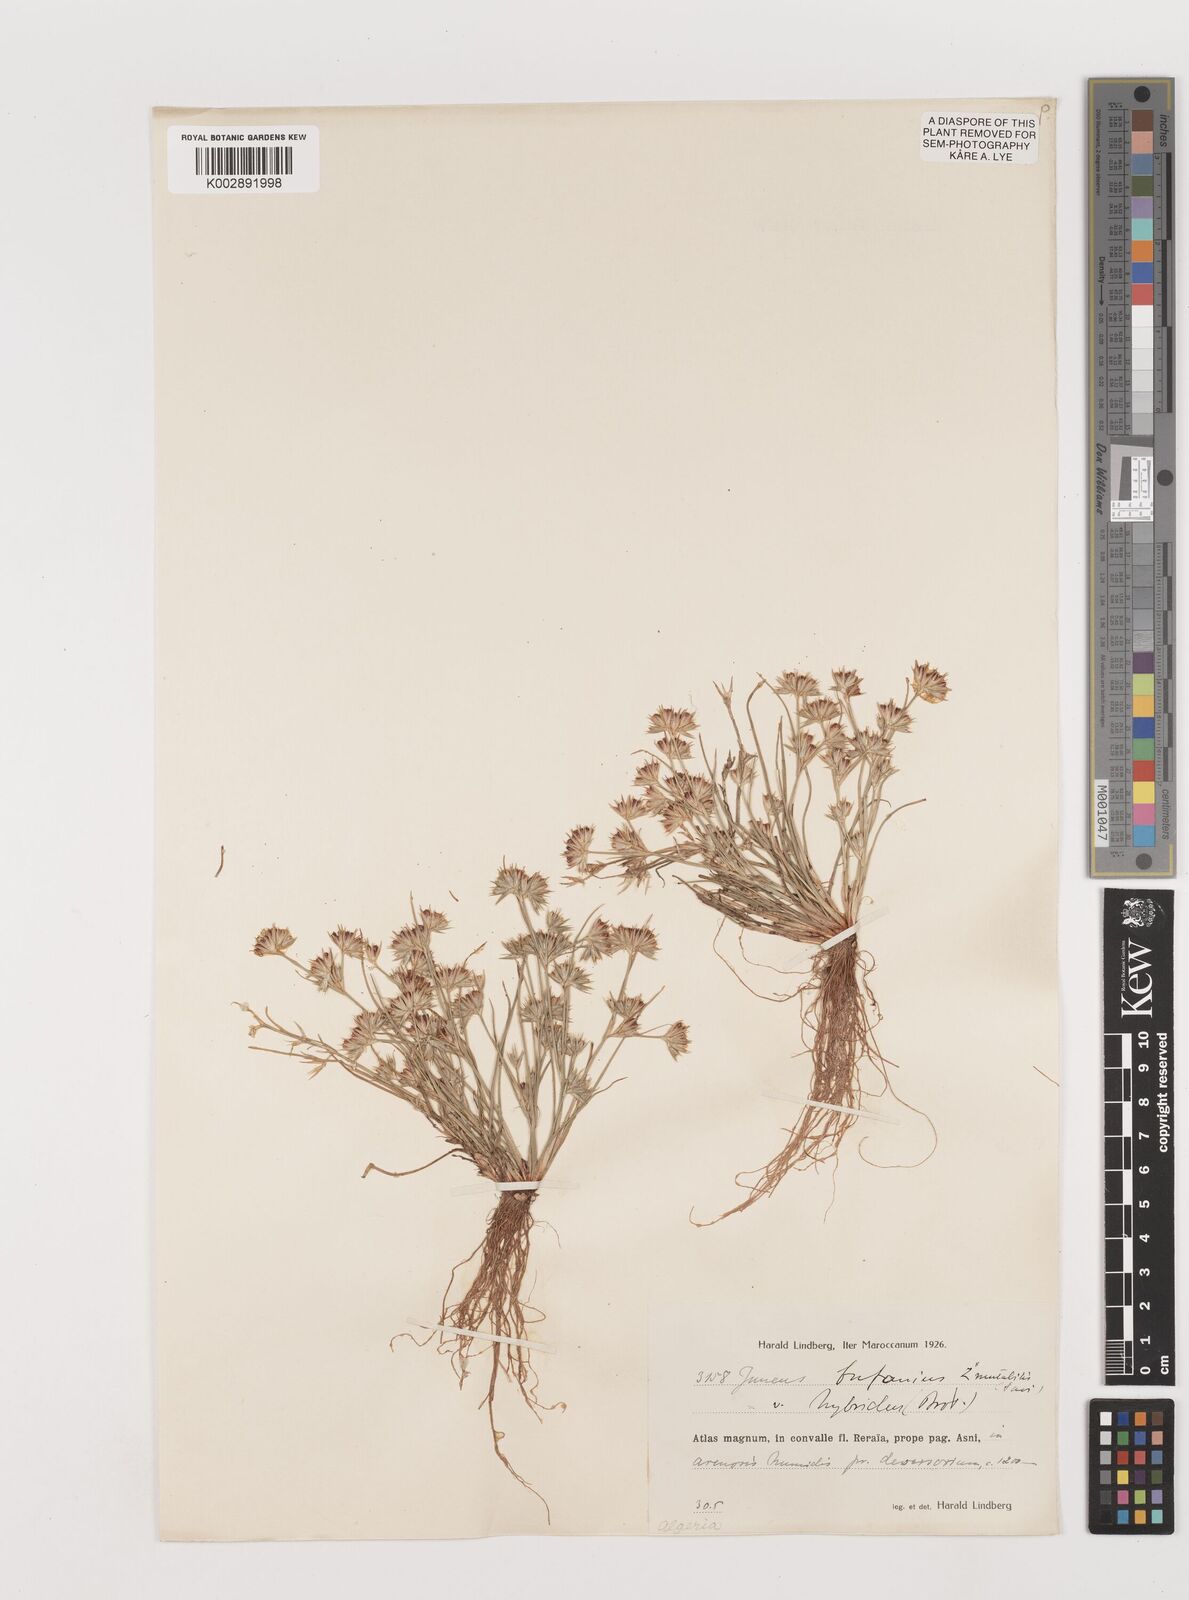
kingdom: Plantae
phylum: Tracheophyta
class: Liliopsida
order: Poales
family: Juncaceae
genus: Juncus
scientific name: Juncus hybridus
